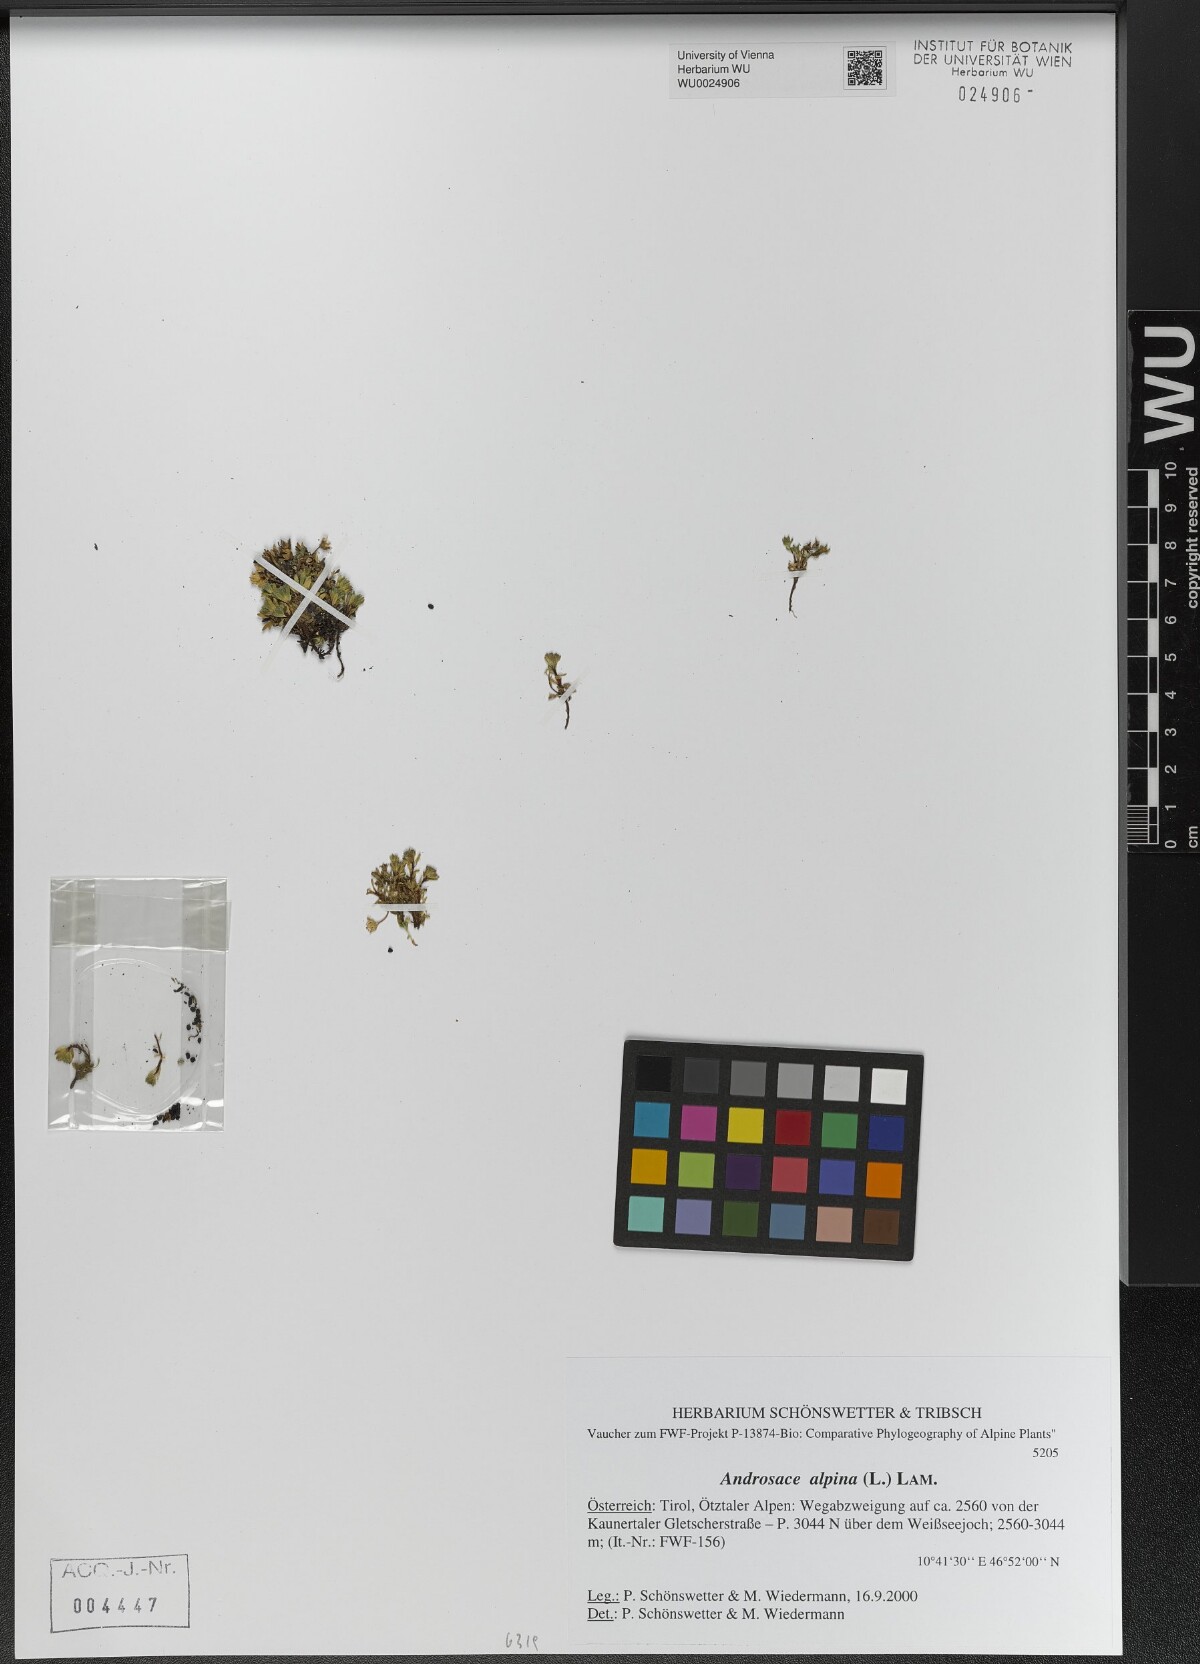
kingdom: Plantae
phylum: Tracheophyta
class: Magnoliopsida
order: Ericales
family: Primulaceae
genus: Androsace
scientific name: Androsace alpina
